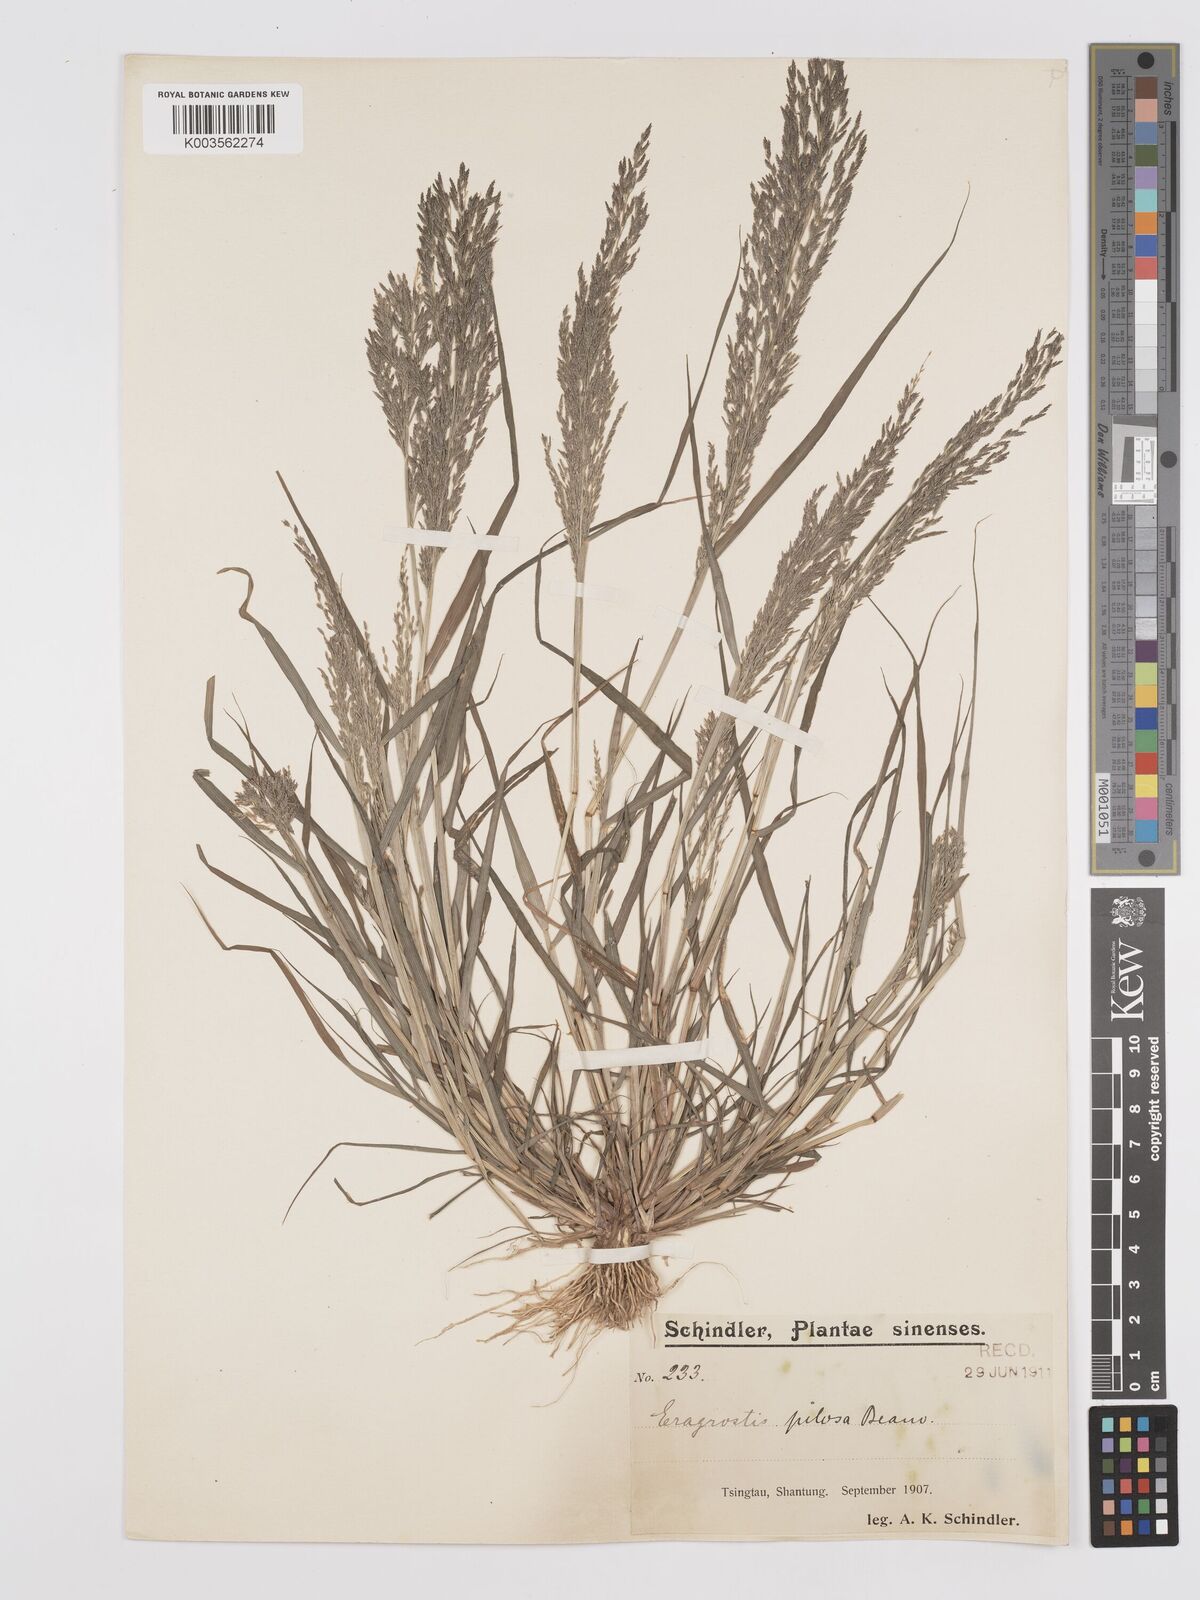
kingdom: Plantae
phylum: Tracheophyta
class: Liliopsida
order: Poales
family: Poaceae
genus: Eragrostis
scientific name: Eragrostis pilosa
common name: Indian lovegrass
